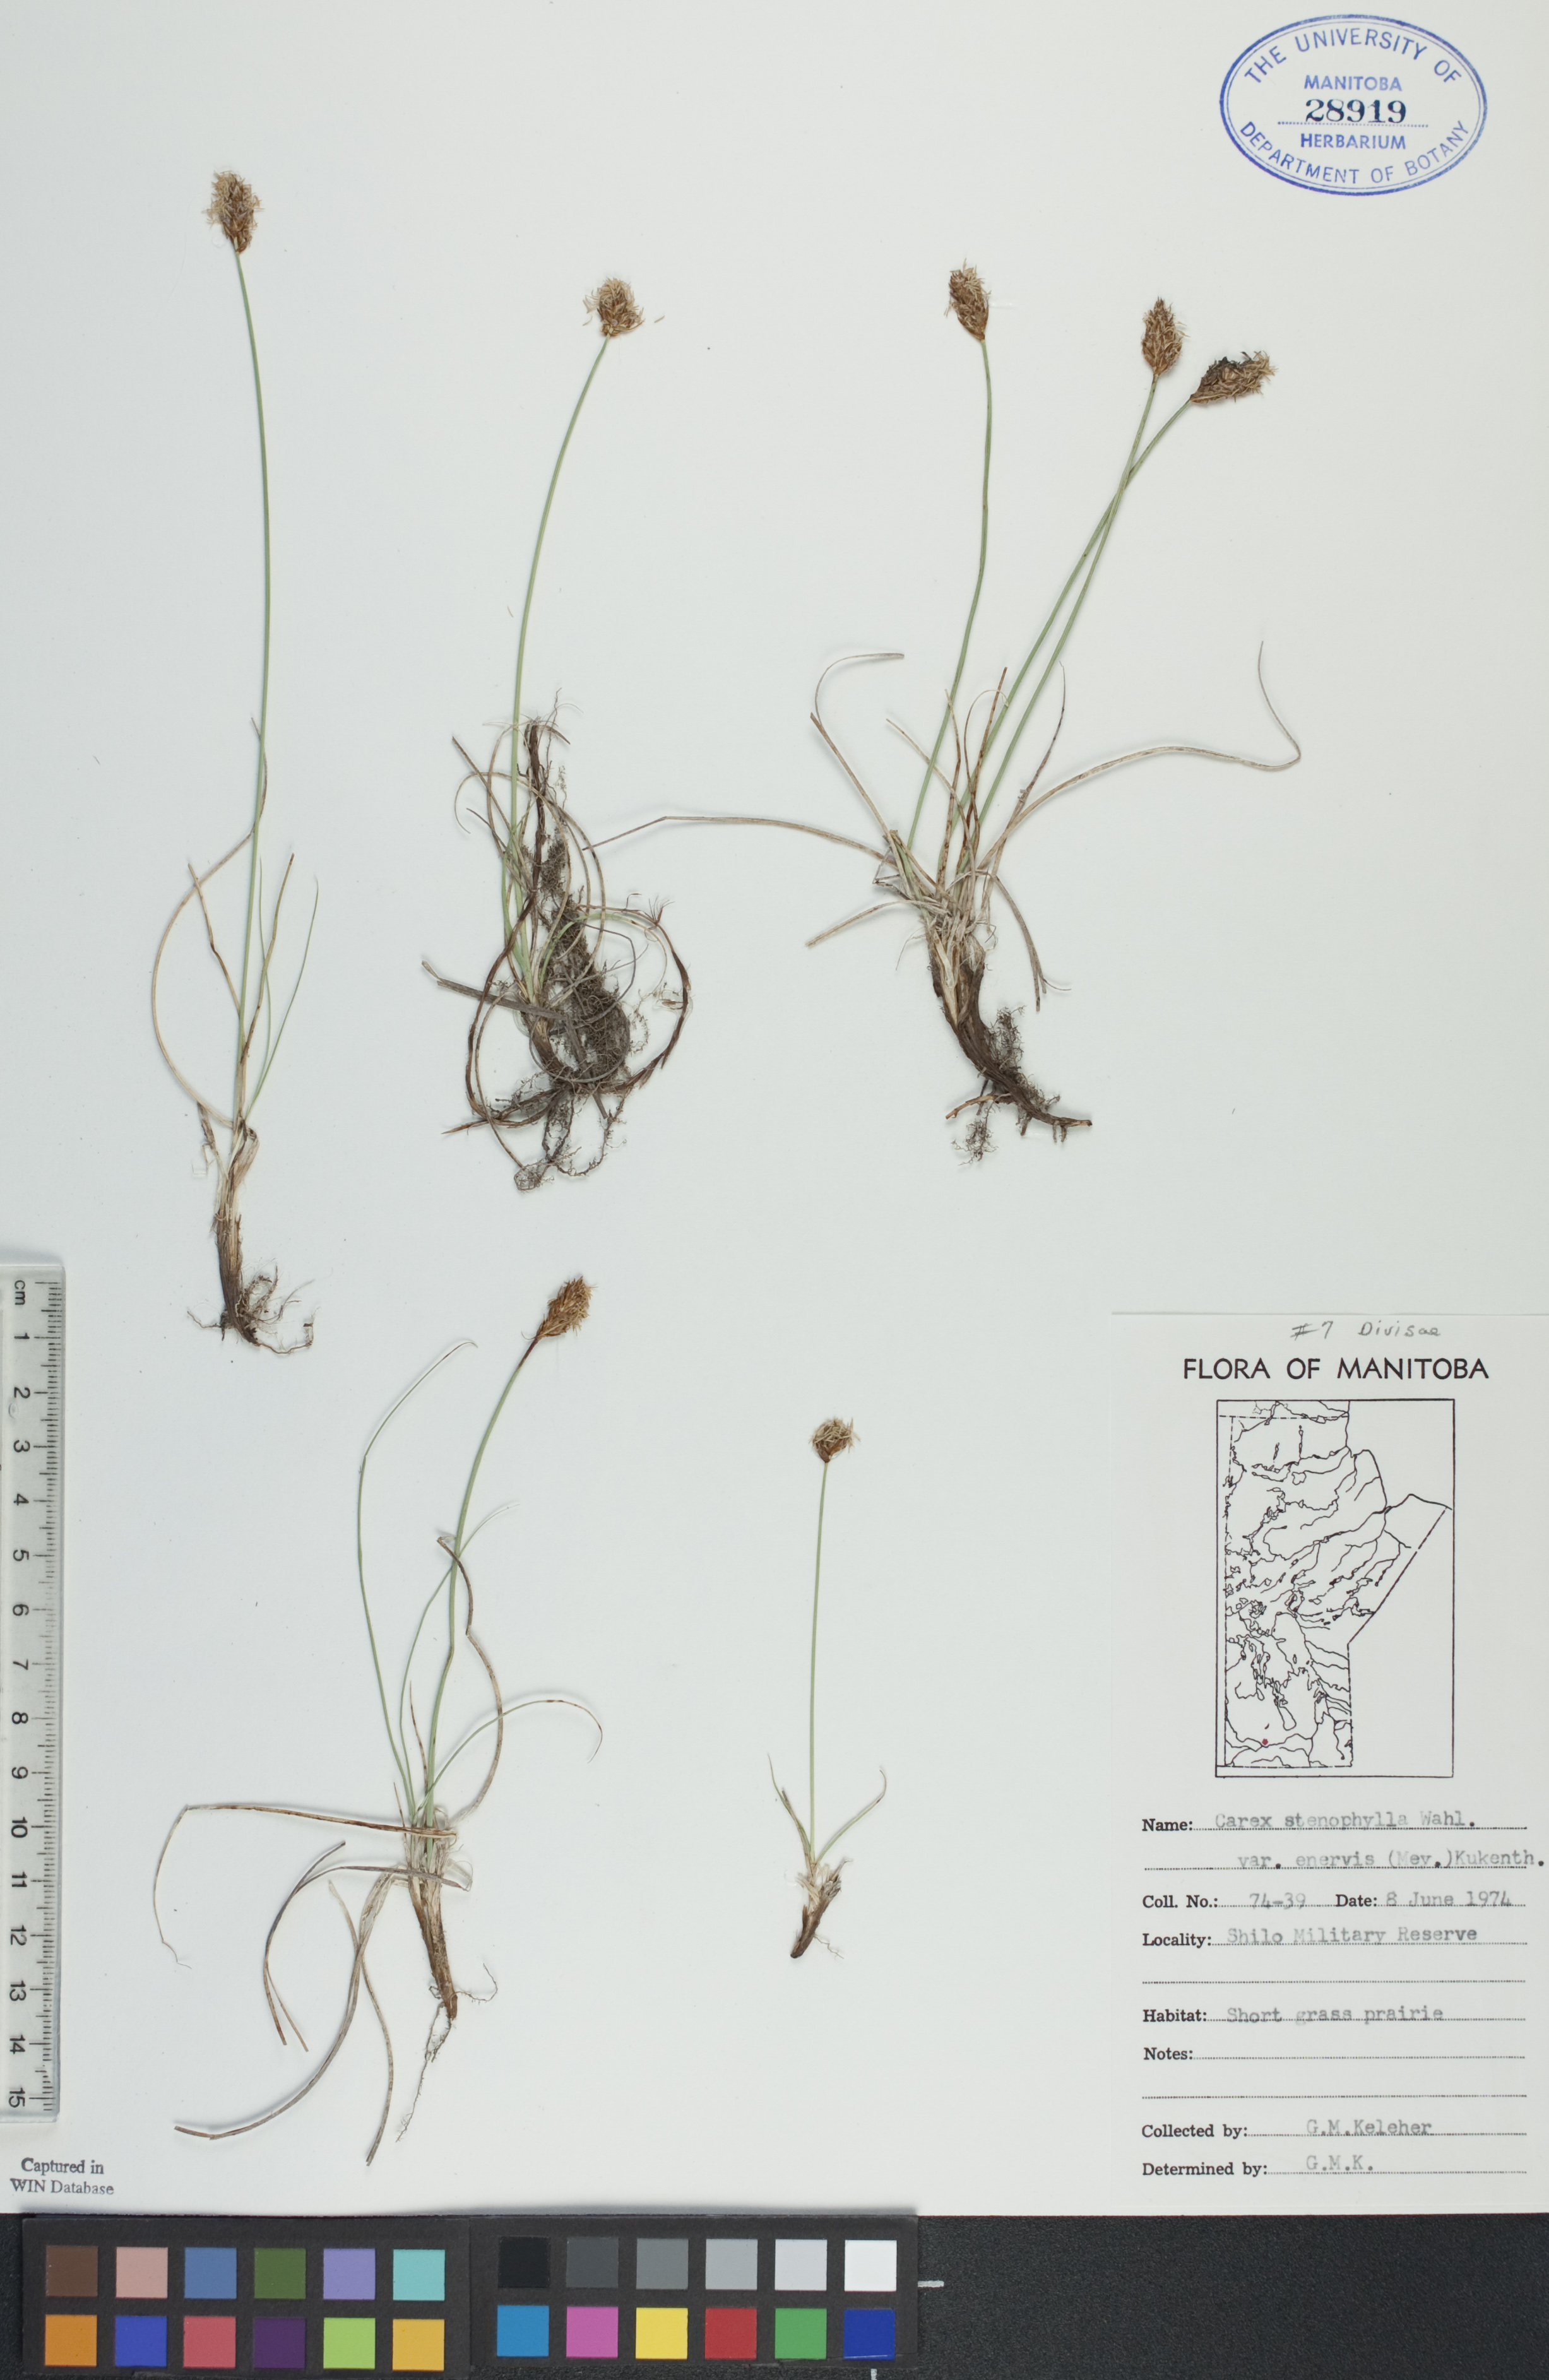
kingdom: Plantae
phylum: Tracheophyta
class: Liliopsida
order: Poales
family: Cyperaceae
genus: Carex
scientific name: Carex enervis
